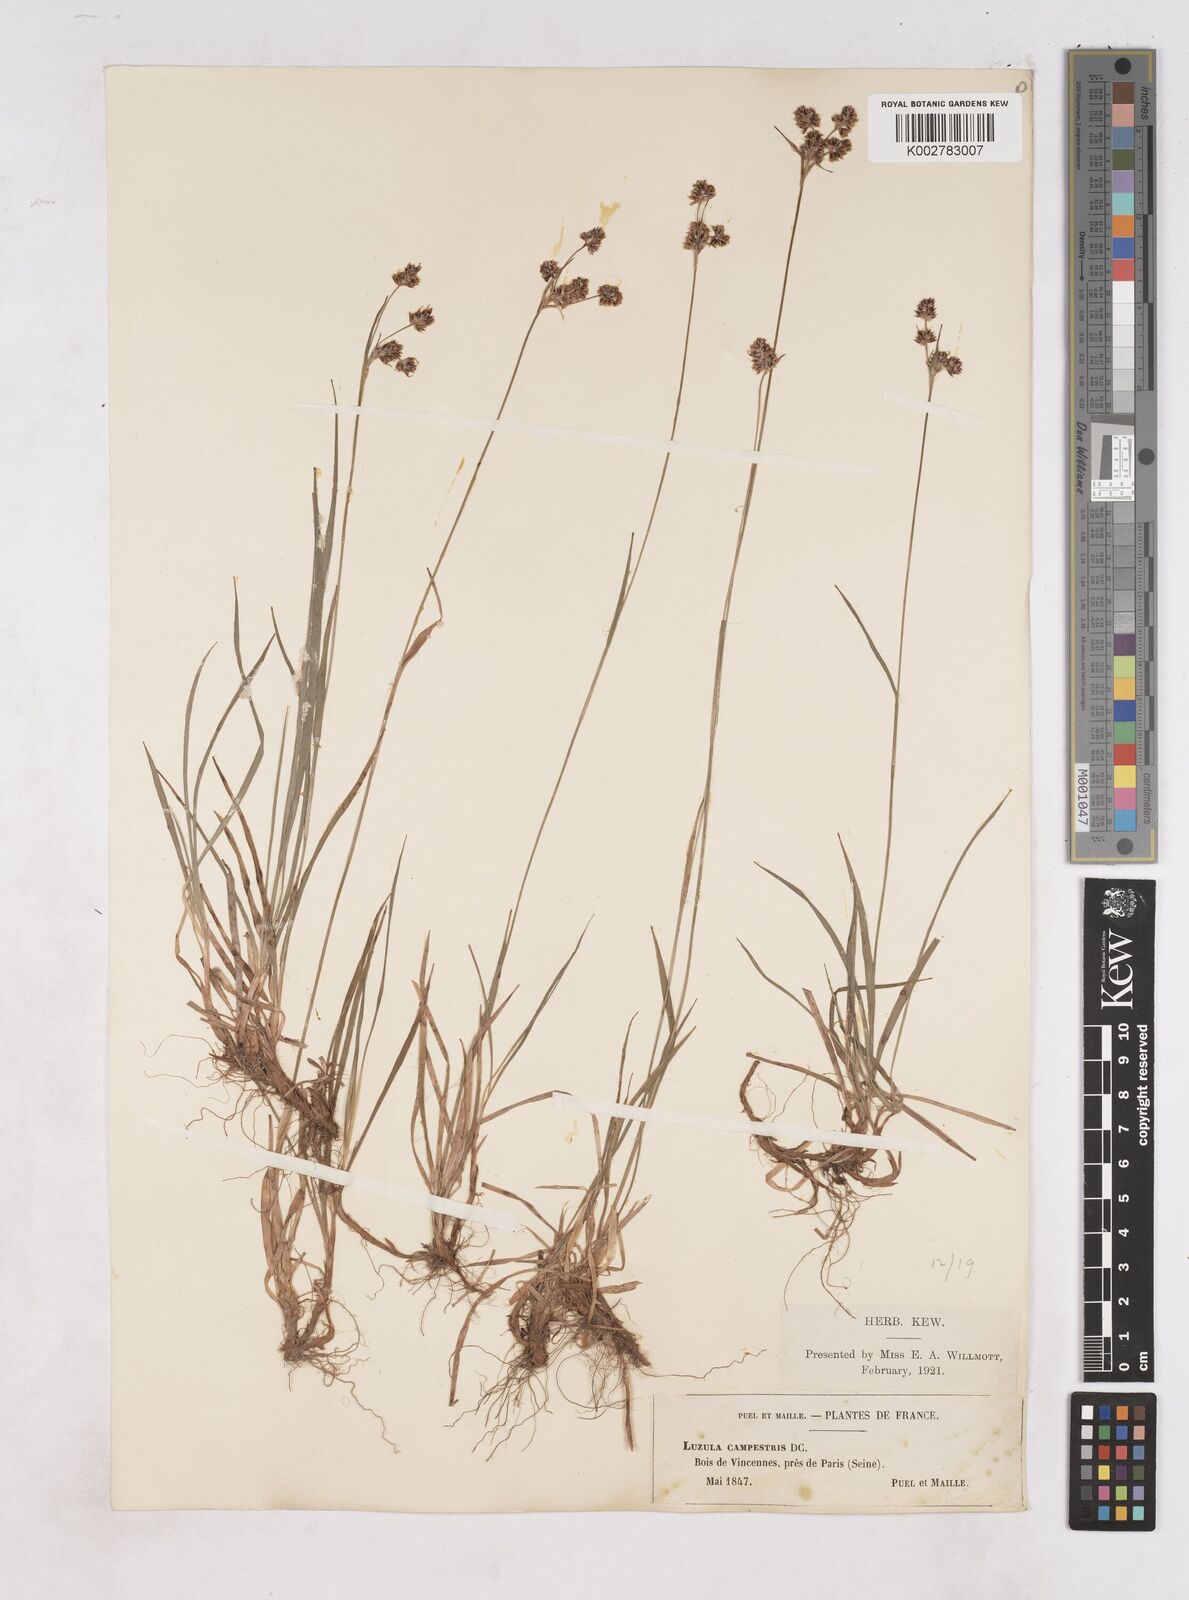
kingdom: Plantae
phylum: Tracheophyta
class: Liliopsida
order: Poales
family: Juncaceae
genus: Luzula
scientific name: Luzula campestris
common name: Field wood-rush
